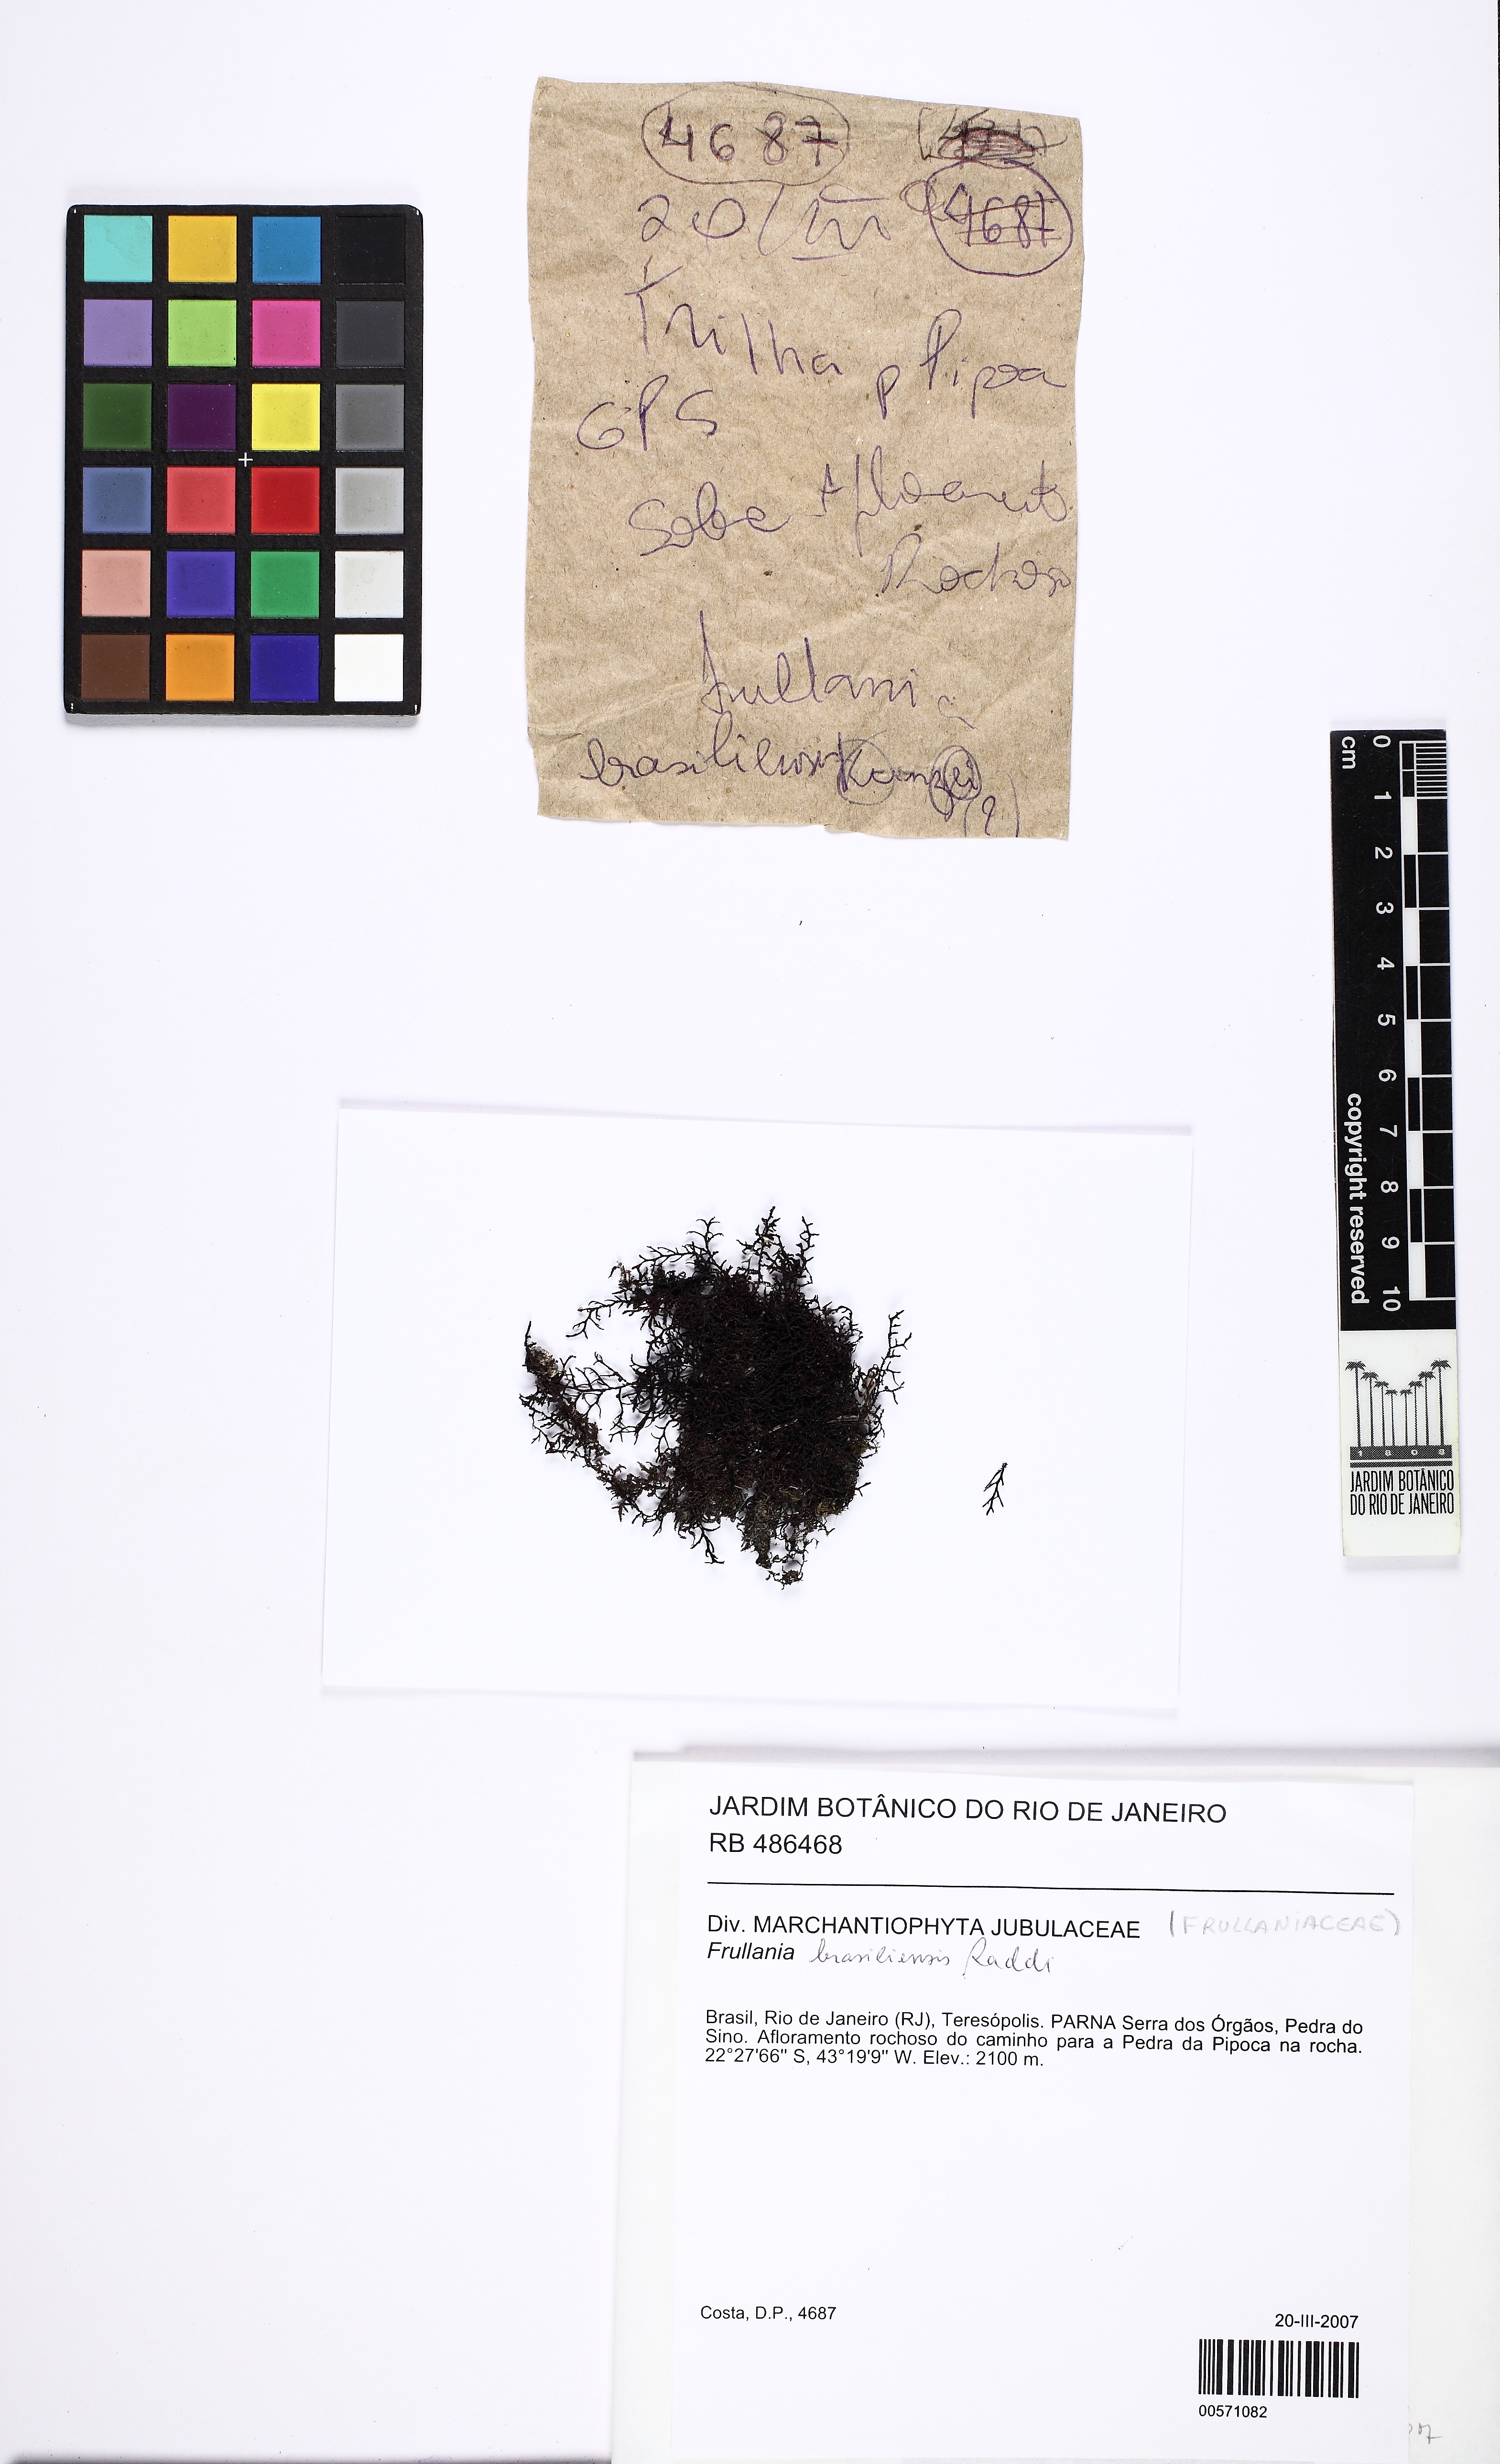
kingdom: Plantae
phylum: Marchantiophyta
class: Jungermanniopsida
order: Porellales
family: Frullaniaceae
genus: Frullania
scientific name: Frullania brasiliensis
